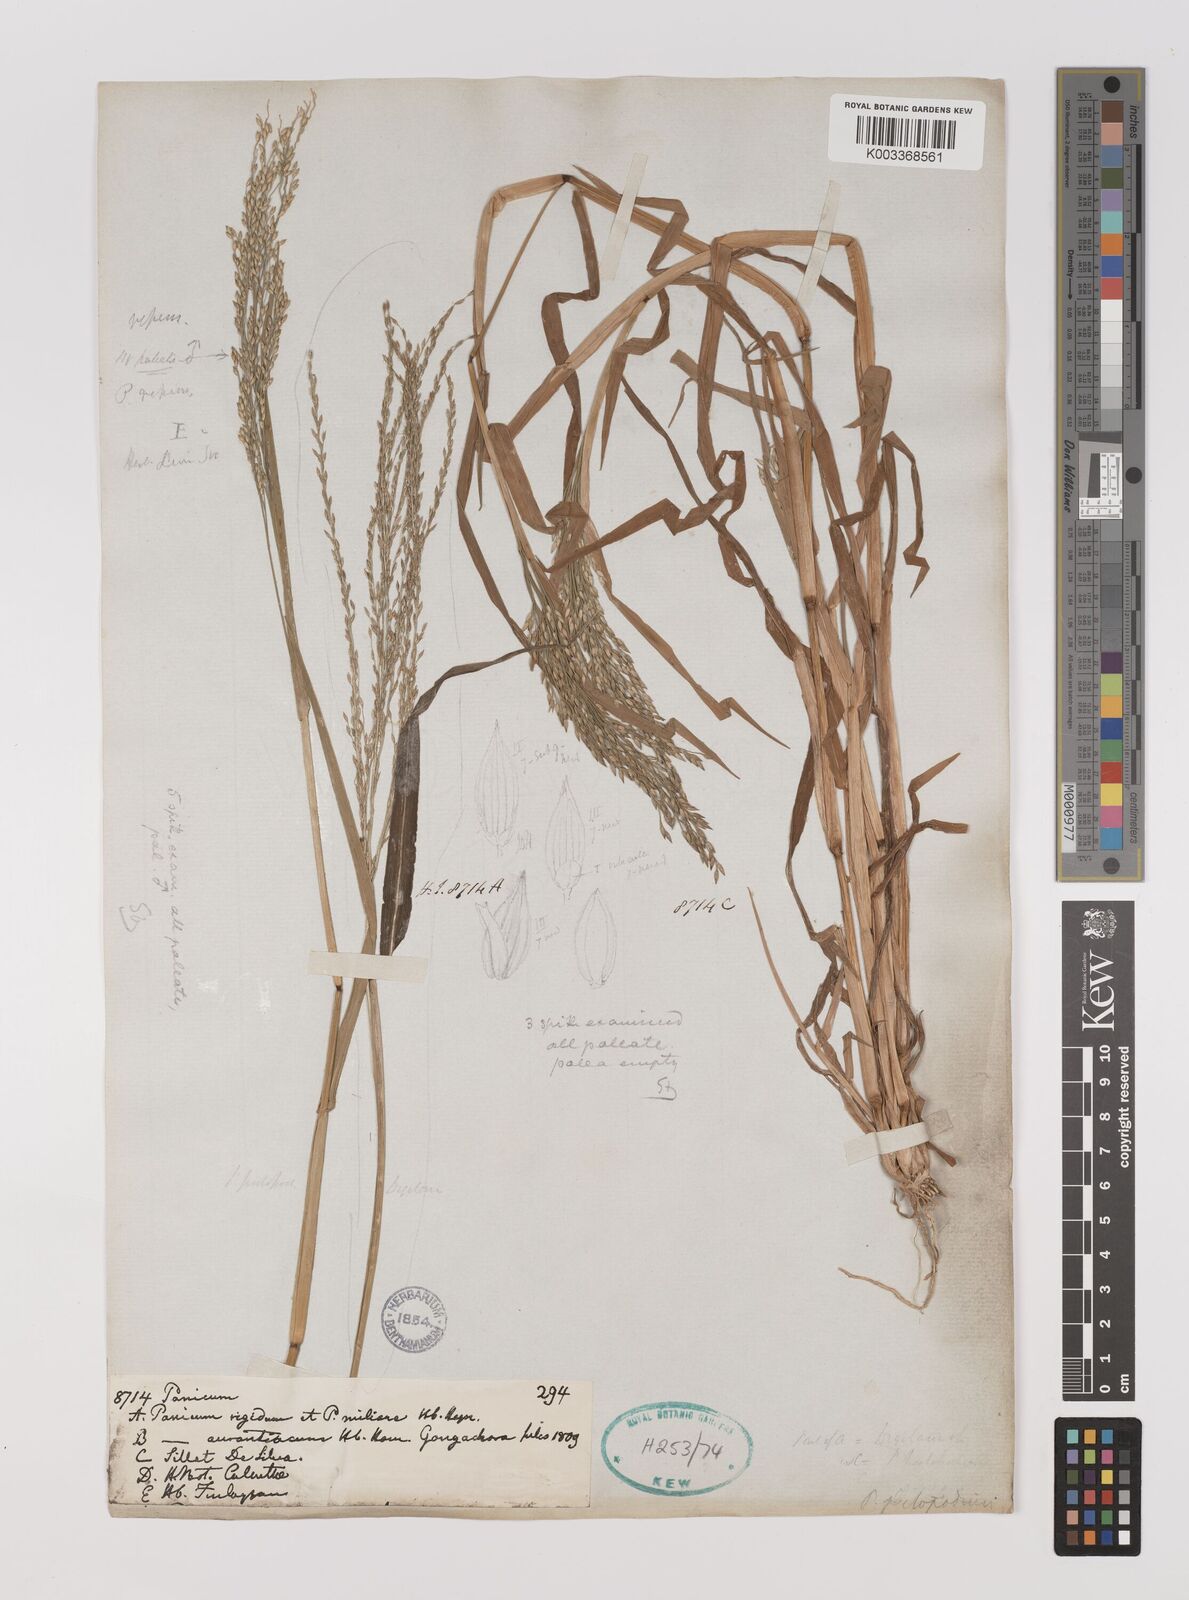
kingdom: Plantae
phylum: Tracheophyta
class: Liliopsida
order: Poales
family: Poaceae
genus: Panicum
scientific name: Panicum sumatrense
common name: Little millet
